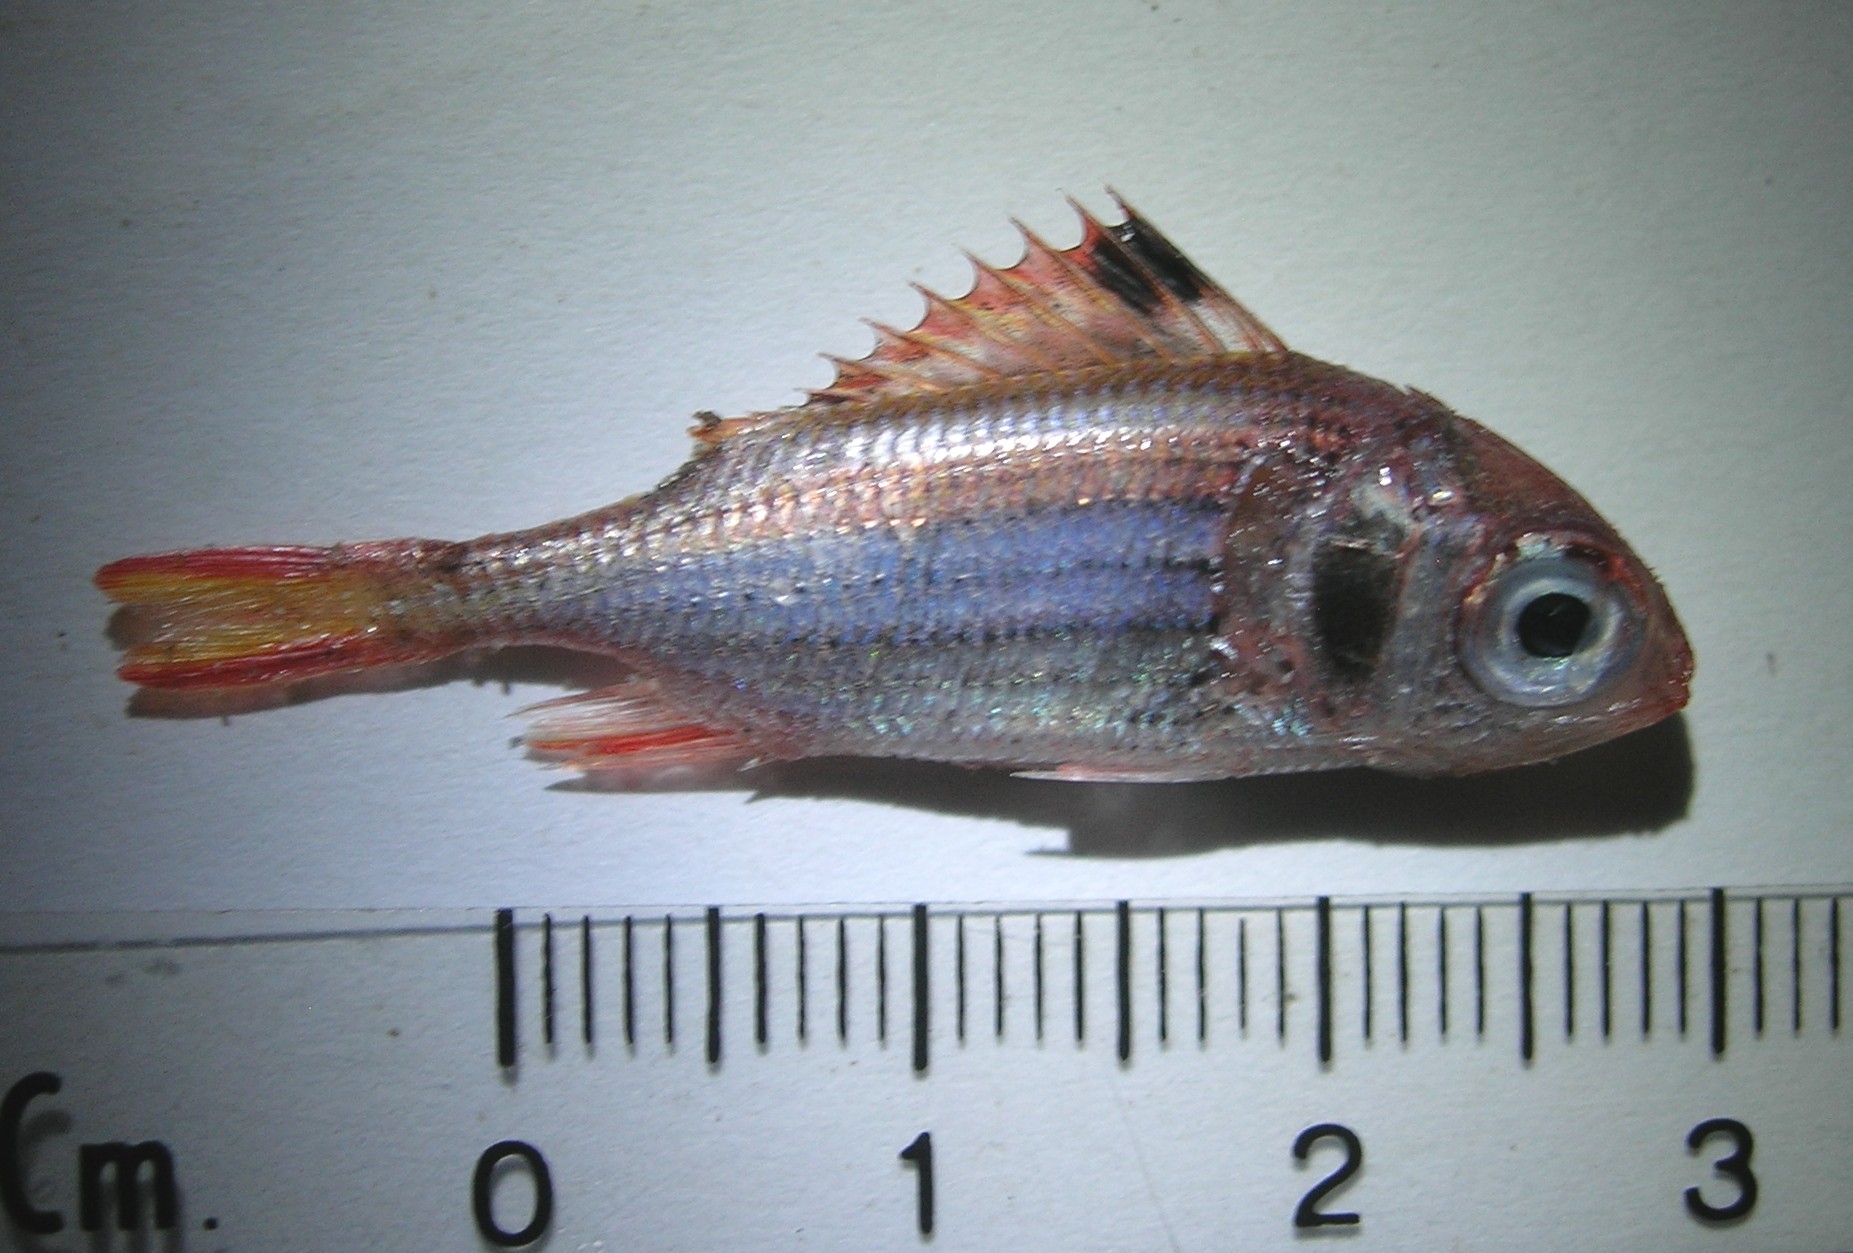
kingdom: Animalia
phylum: Chordata
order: Beryciformes
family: Holocentridae
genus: Neoniphon
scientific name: Neoniphon sammara
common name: Sammara squirrelfish
